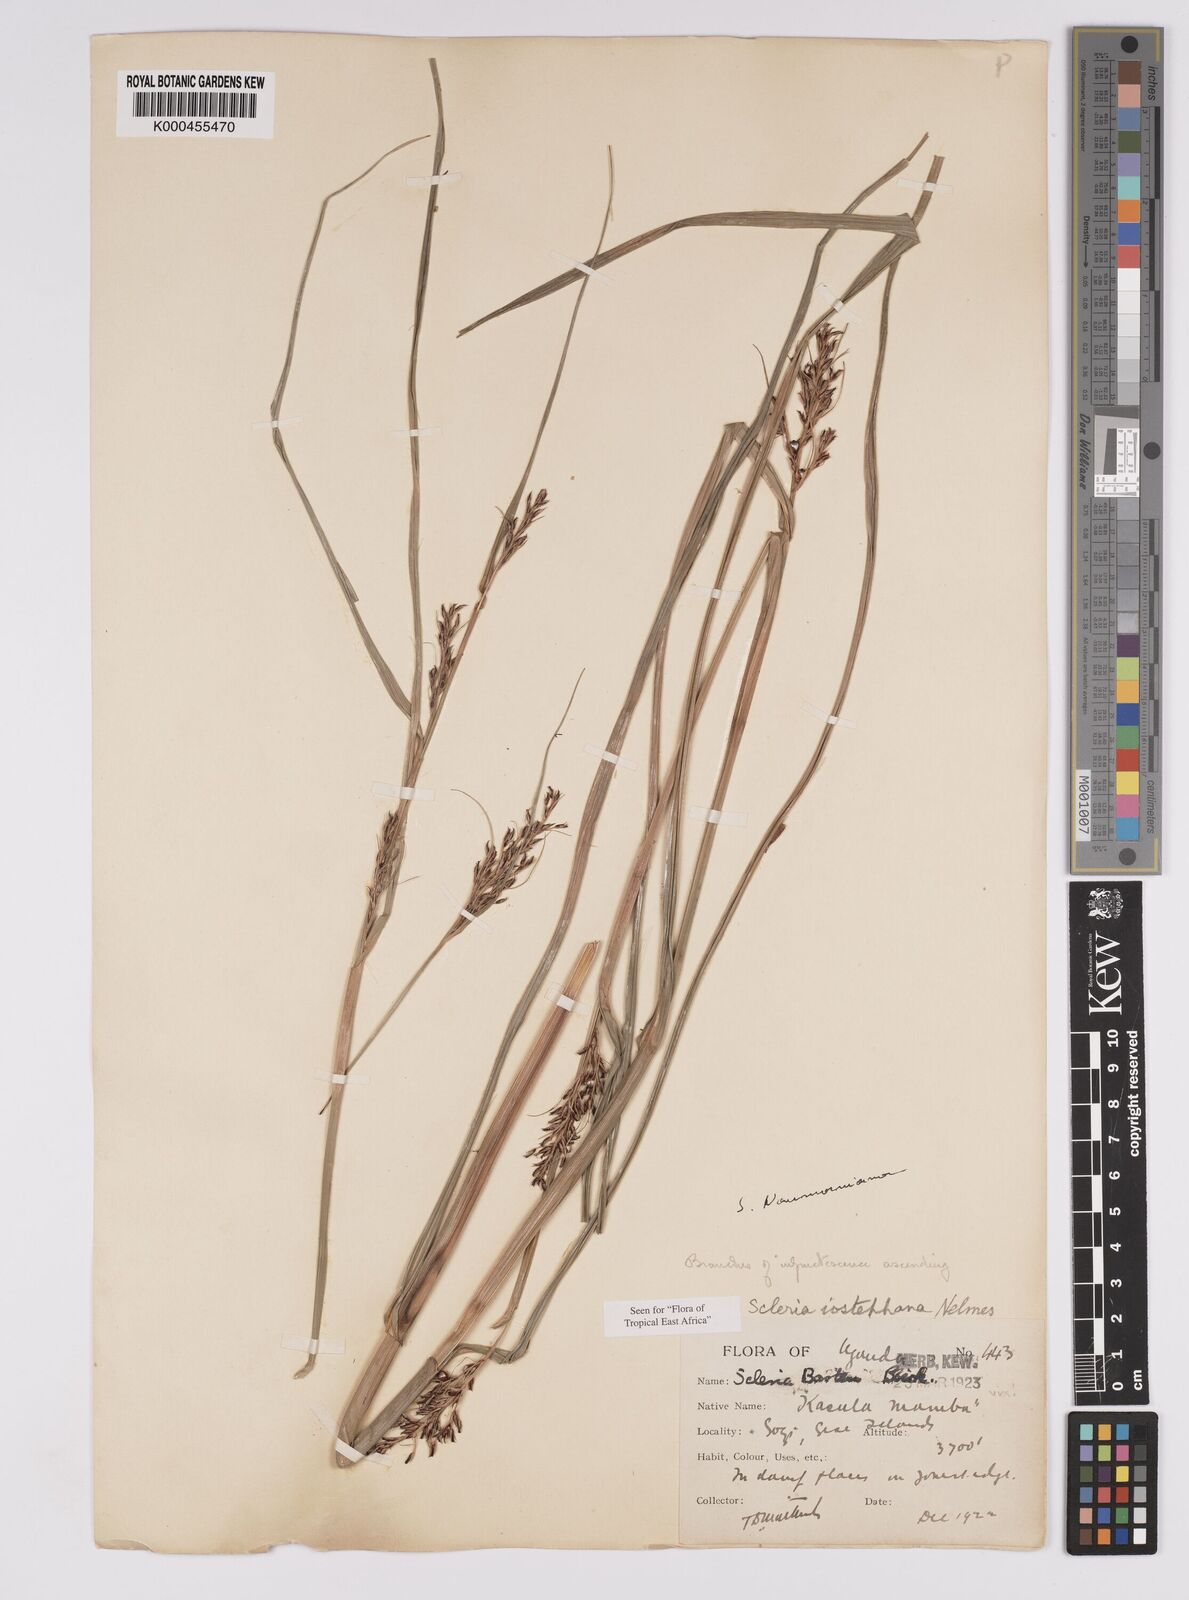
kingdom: Plantae
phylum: Tracheophyta
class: Liliopsida
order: Poales
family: Cyperaceae
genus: Scleria
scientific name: Scleria iostephana
